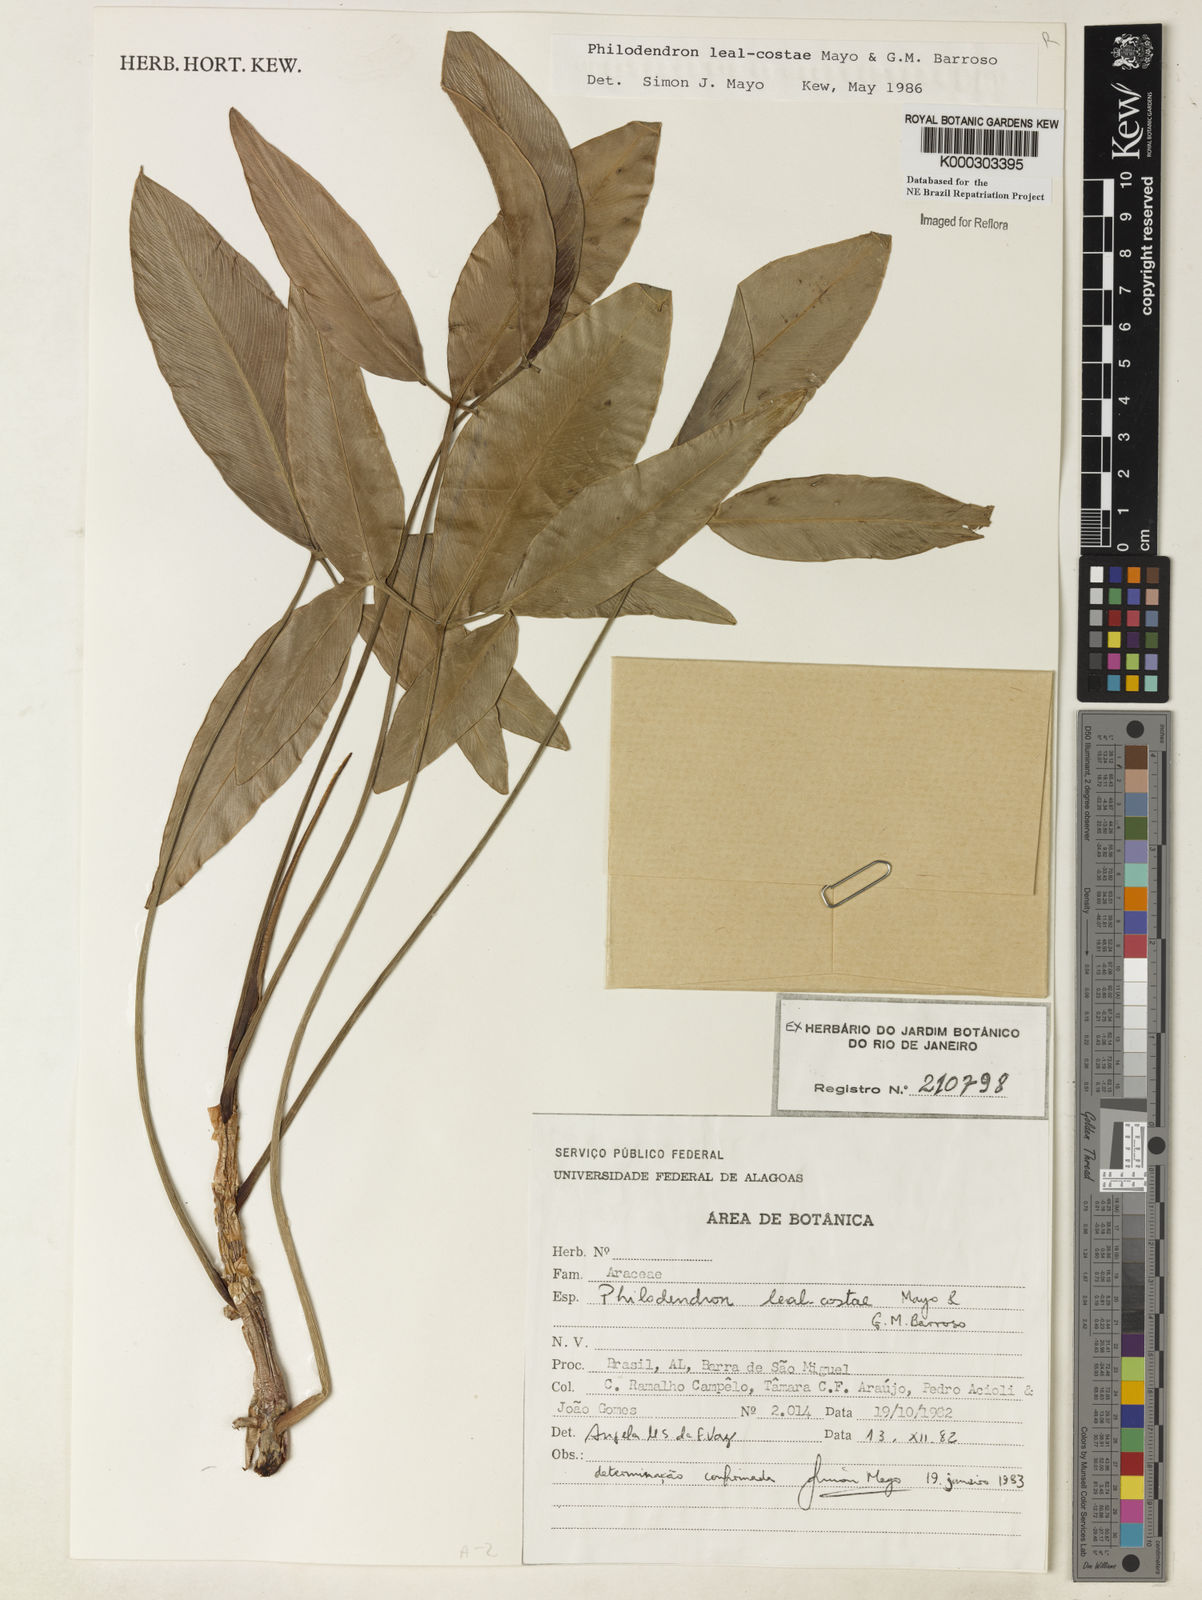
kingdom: Plantae
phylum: Tracheophyta
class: Liliopsida
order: Alismatales
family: Araceae
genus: Thaumatophyllum
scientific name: Thaumatophyllum leal-costae
